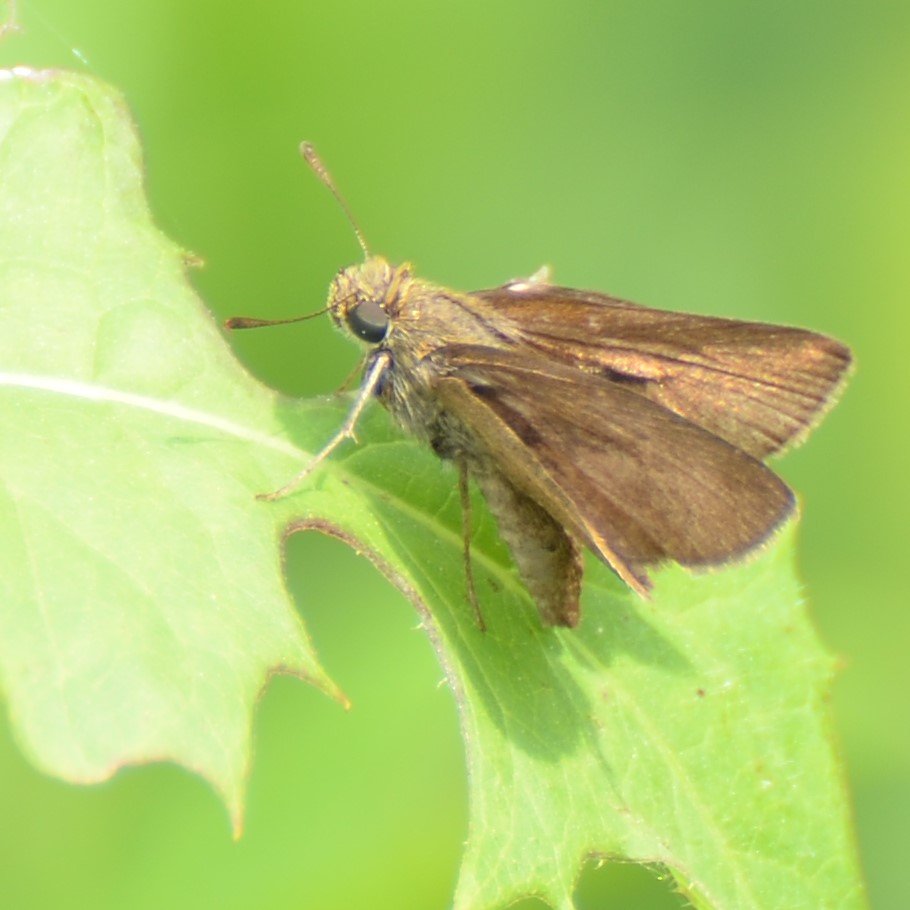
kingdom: Animalia
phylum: Arthropoda
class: Insecta
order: Lepidoptera
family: Hesperiidae
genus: Euphyes
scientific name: Euphyes vestris
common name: Dun Skipper
